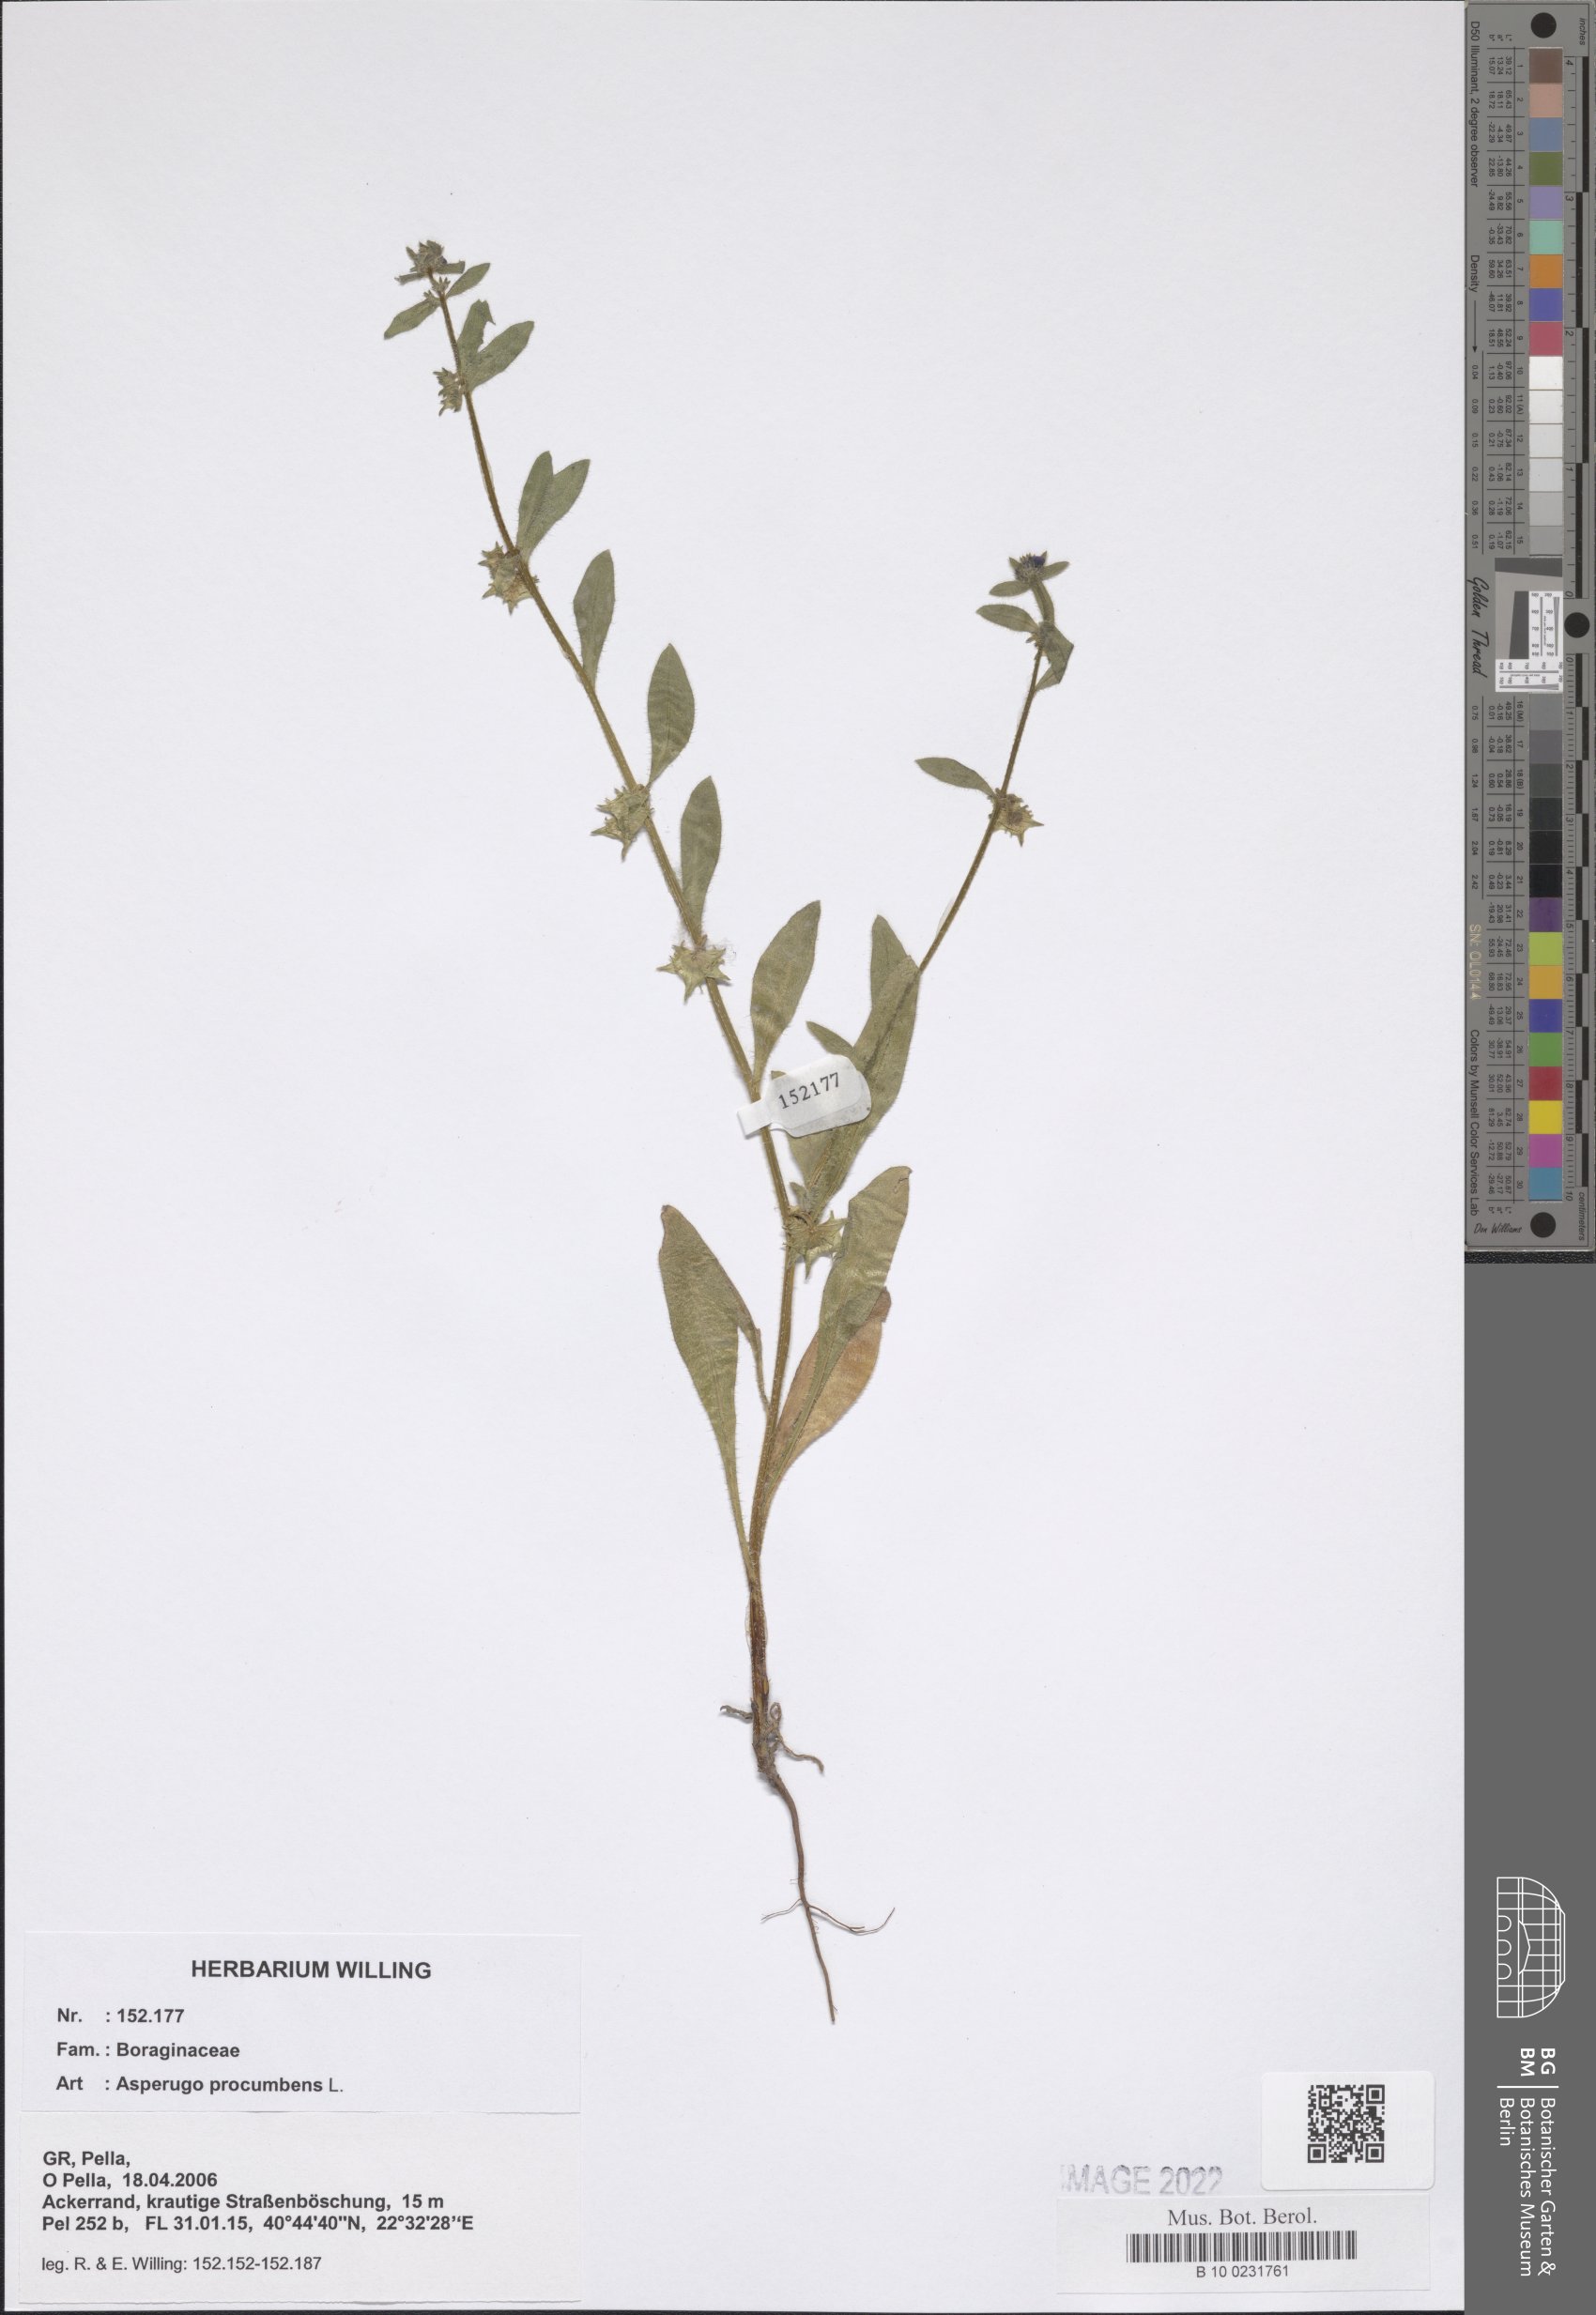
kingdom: Plantae
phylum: Tracheophyta
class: Magnoliopsida
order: Boraginales
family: Boraginaceae
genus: Asperugo
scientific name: Asperugo procumbens
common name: Madwort
